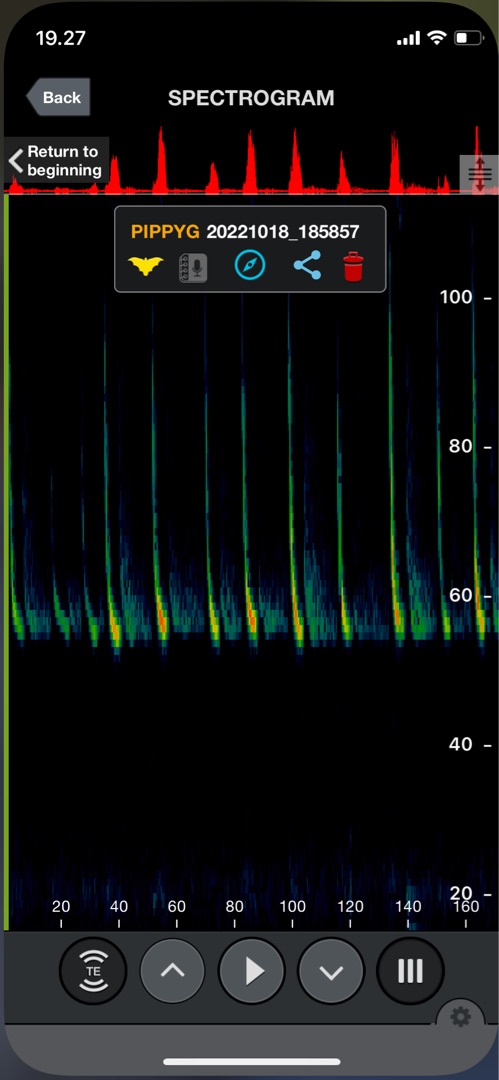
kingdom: Animalia
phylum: Chordata
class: Mammalia
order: Chiroptera
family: Vespertilionidae
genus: Pipistrellus
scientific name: Pipistrellus pygmaeus
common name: Dværgflagermus
